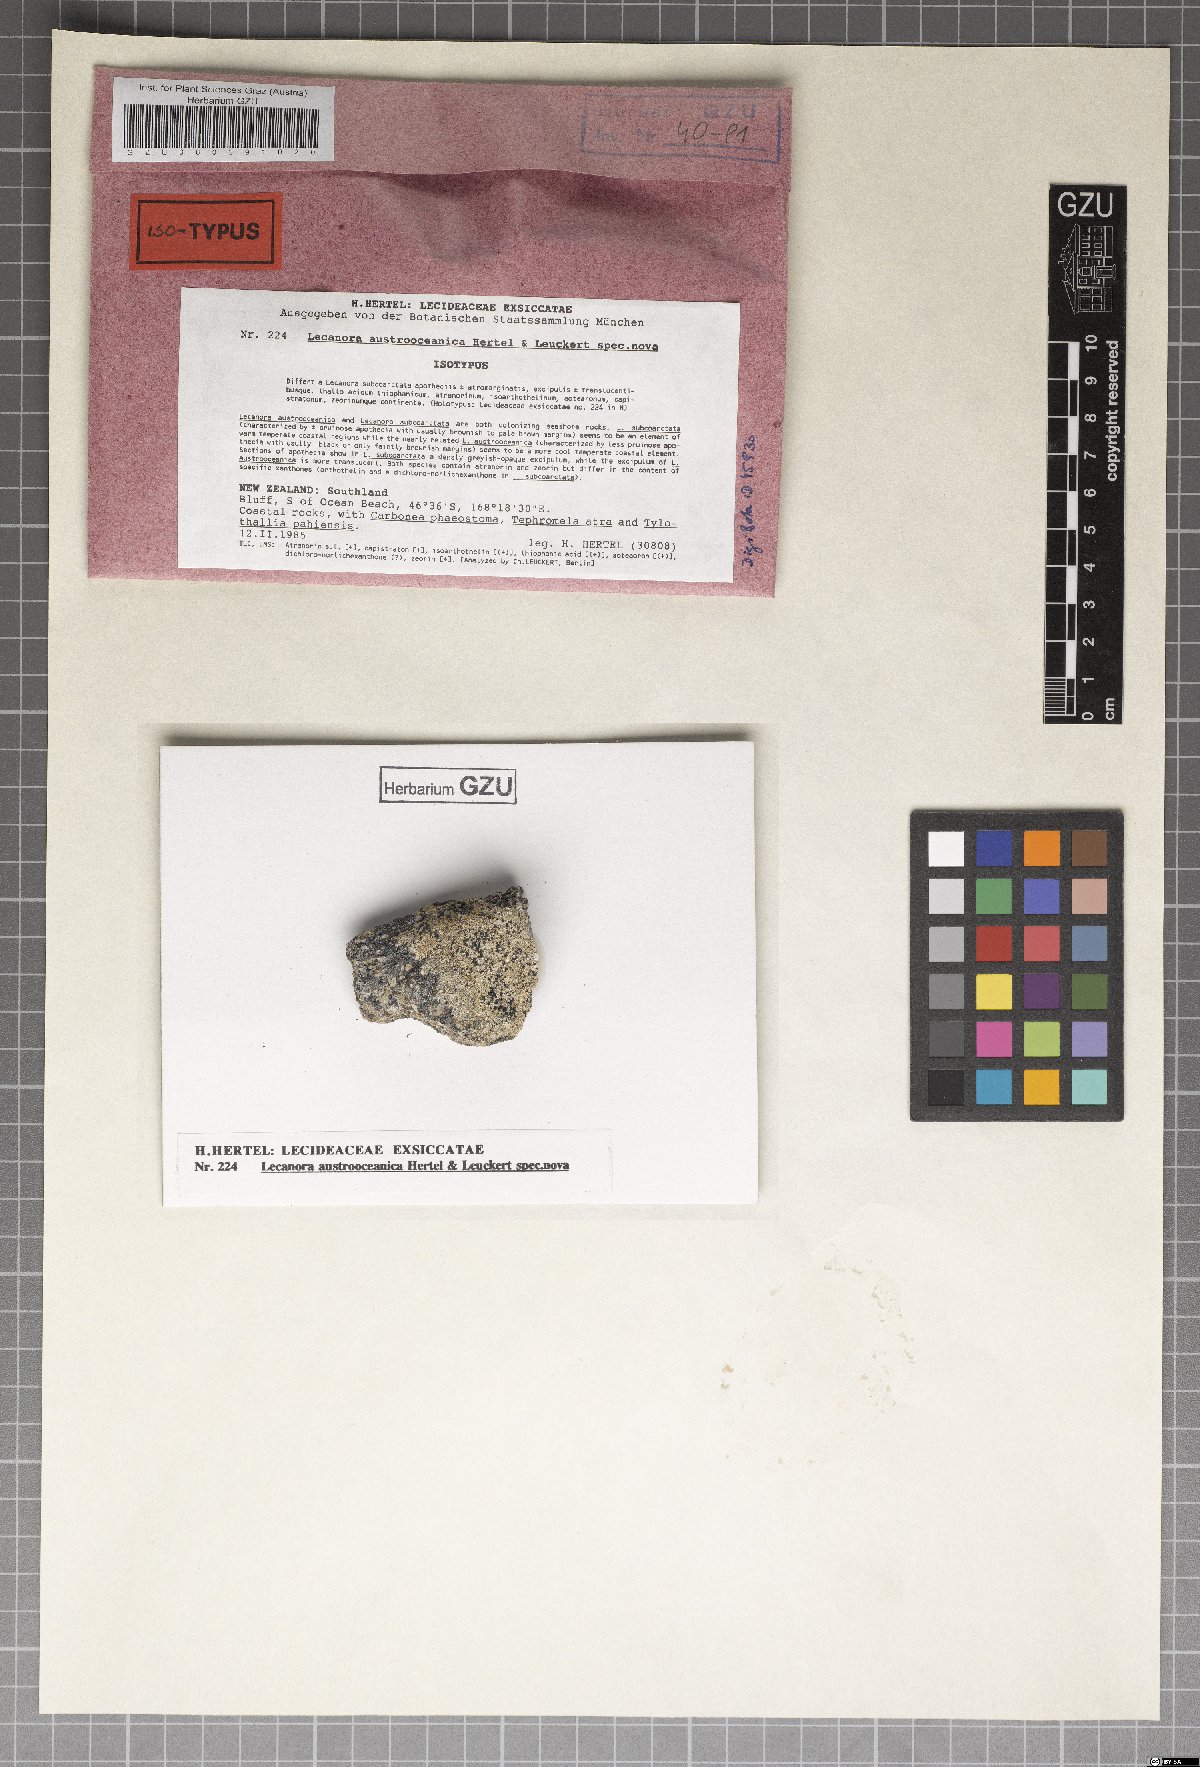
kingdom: Fungi
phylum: Ascomycota
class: Lecanoromycetes
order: Lecanorales
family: Lecanoraceae
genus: Lecanora
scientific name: Lecanora austro-oceanica
